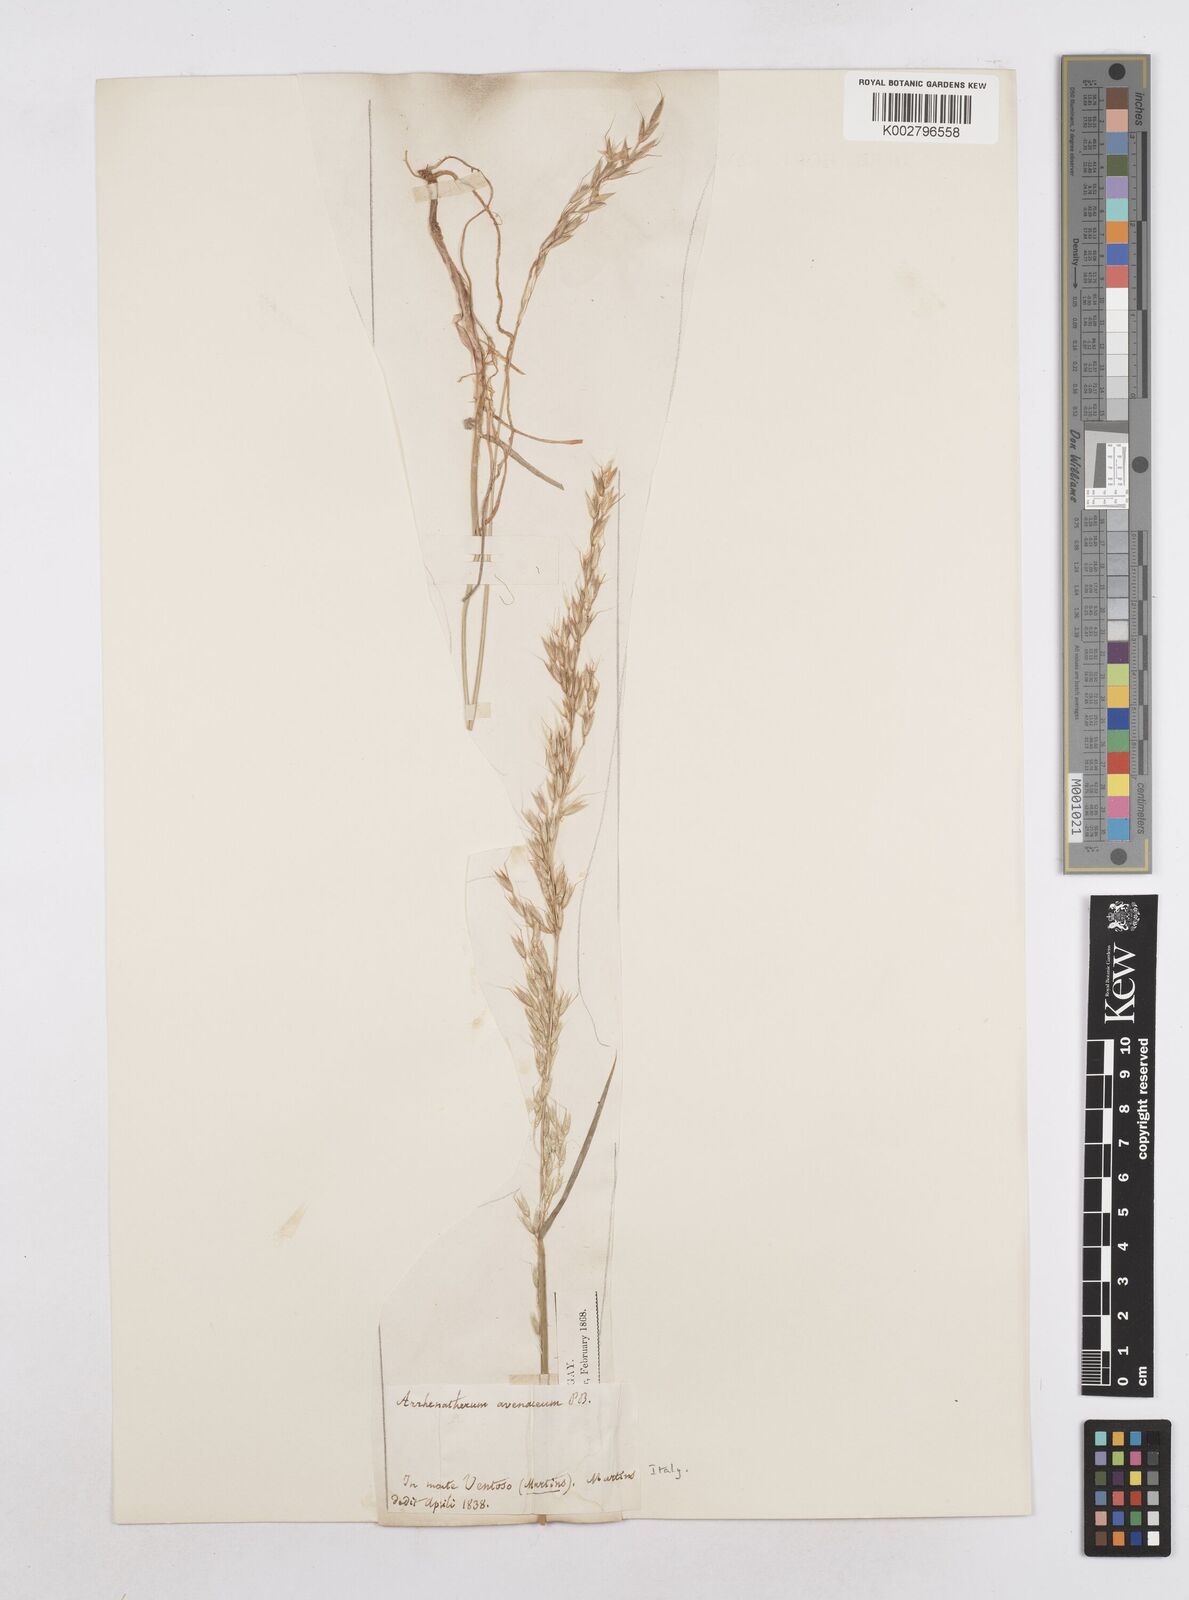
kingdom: Plantae
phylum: Tracheophyta
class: Liliopsida
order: Poales
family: Poaceae
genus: Arrhenatherum
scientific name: Arrhenatherum elatius
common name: Tall oatgrass
